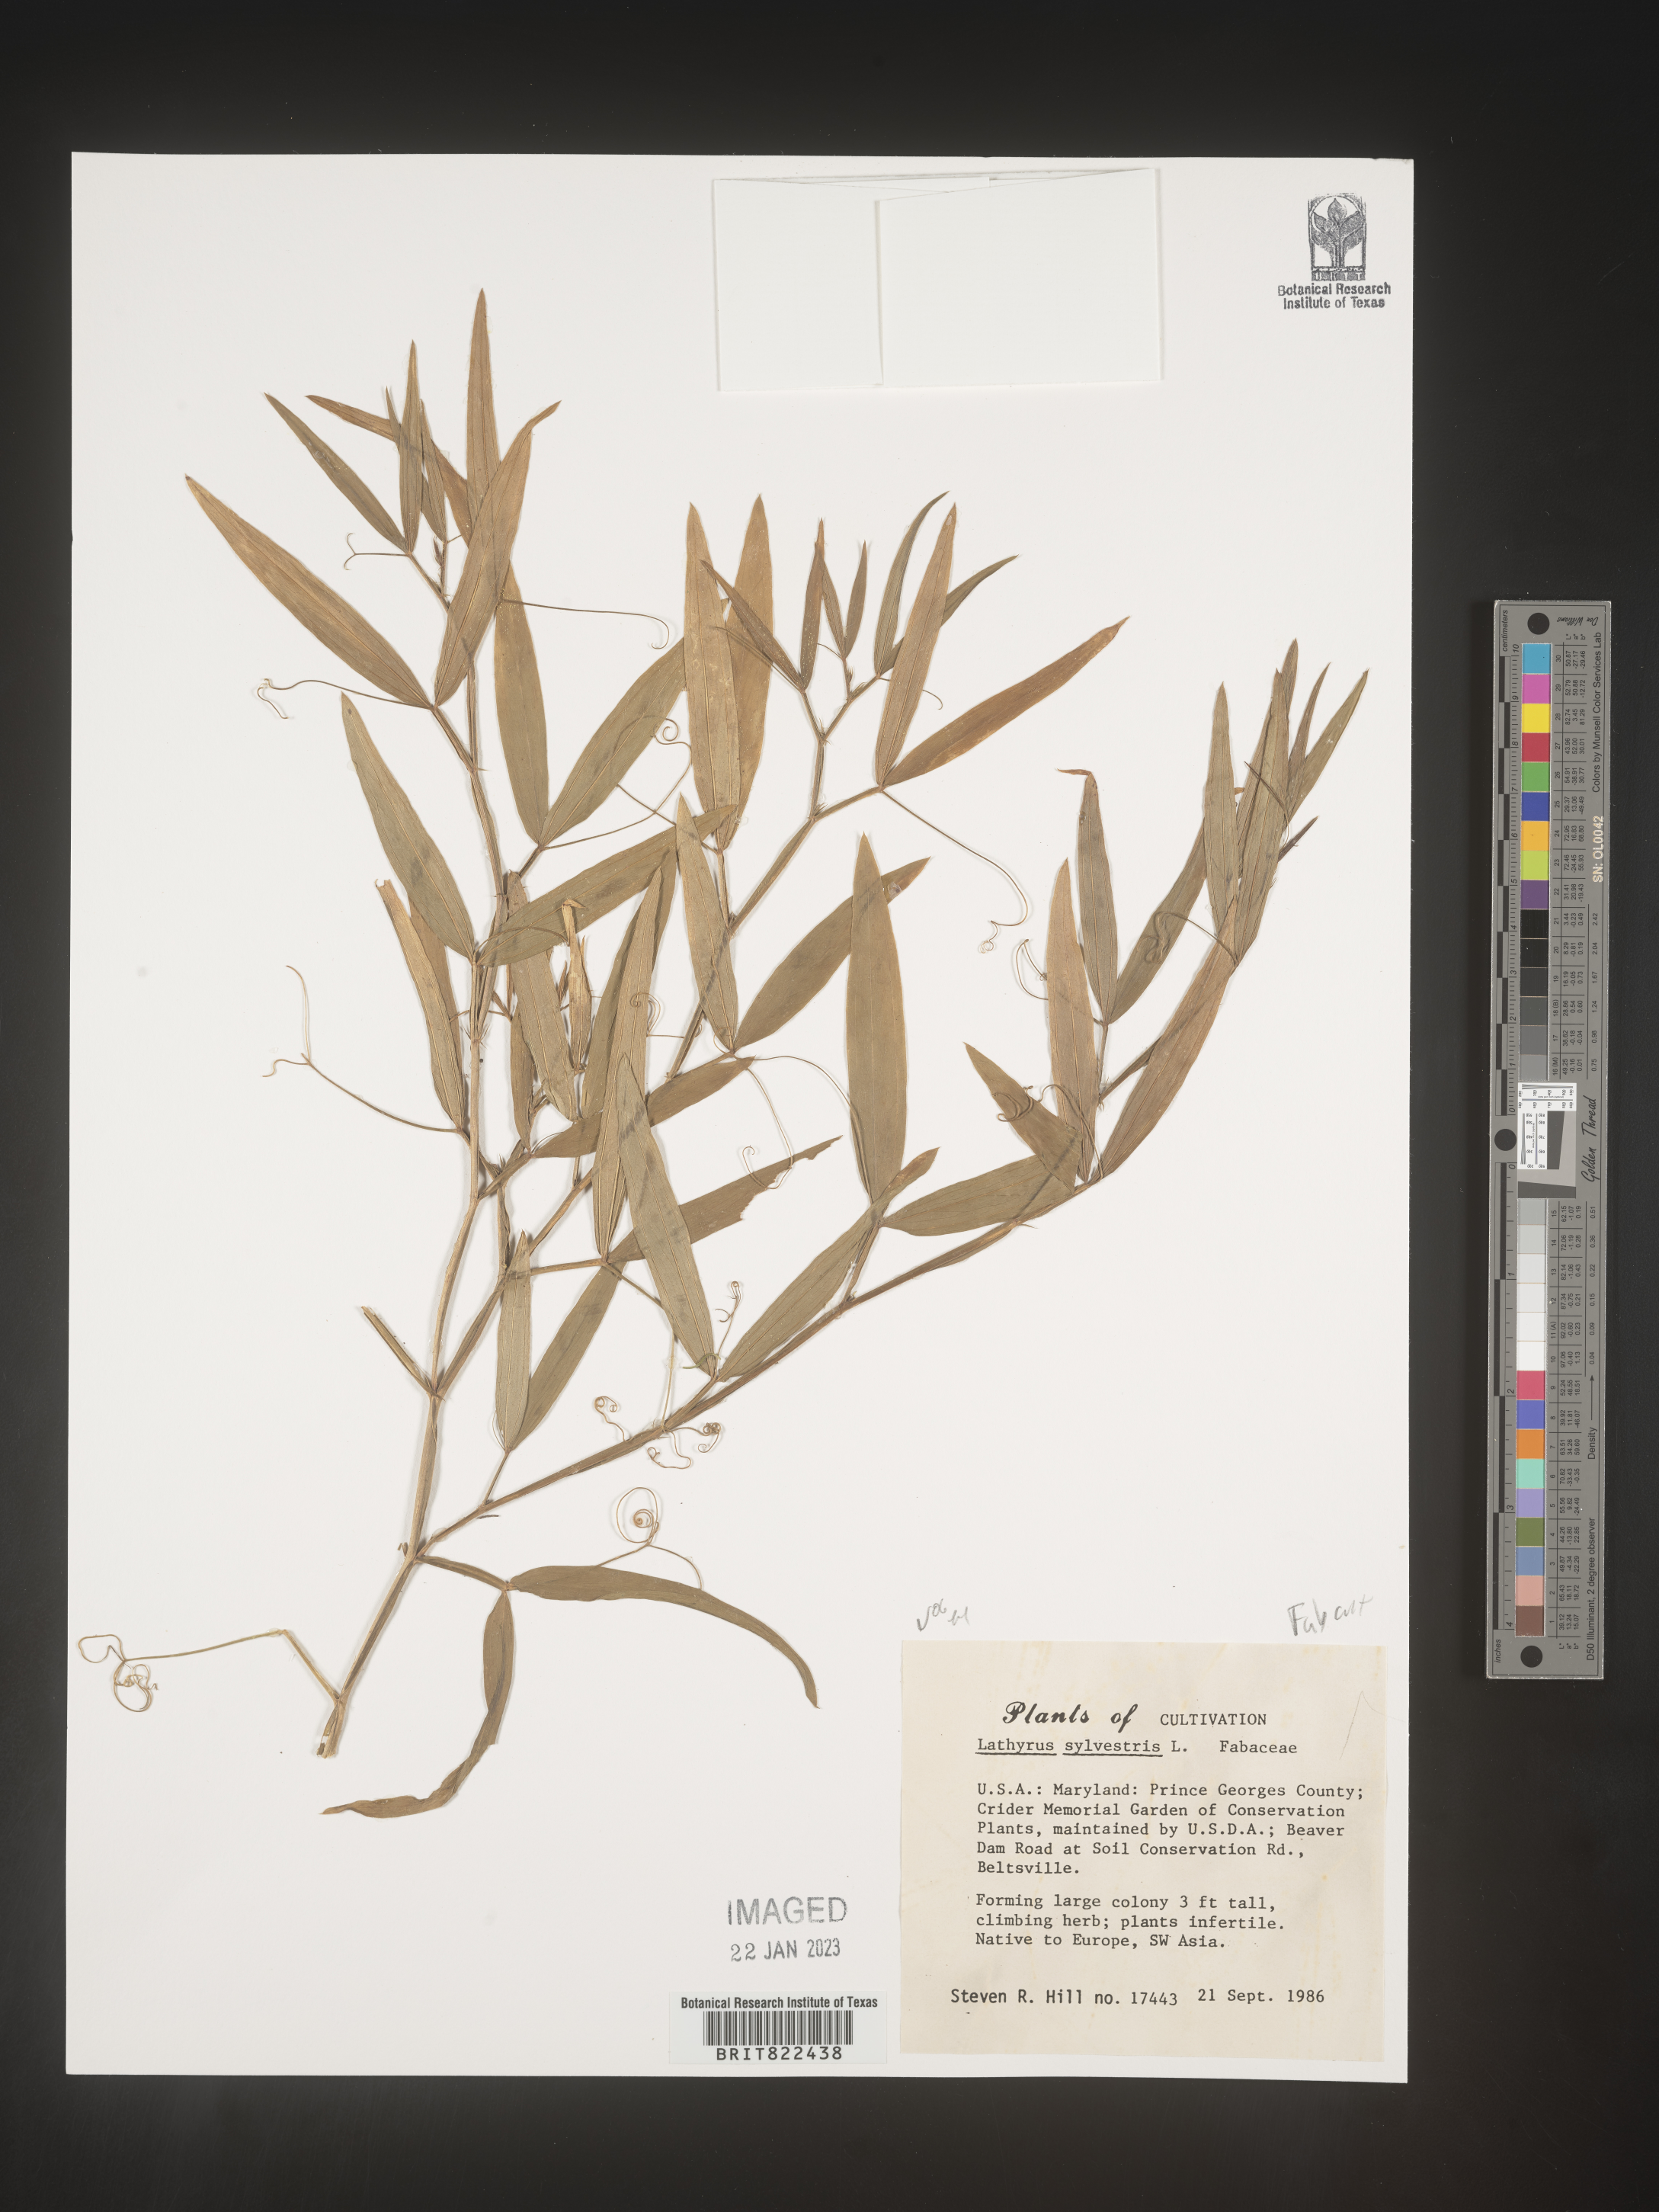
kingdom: Plantae
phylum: Tracheophyta
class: Magnoliopsida
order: Fabales
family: Fabaceae
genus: Lathyrus
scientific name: Lathyrus
